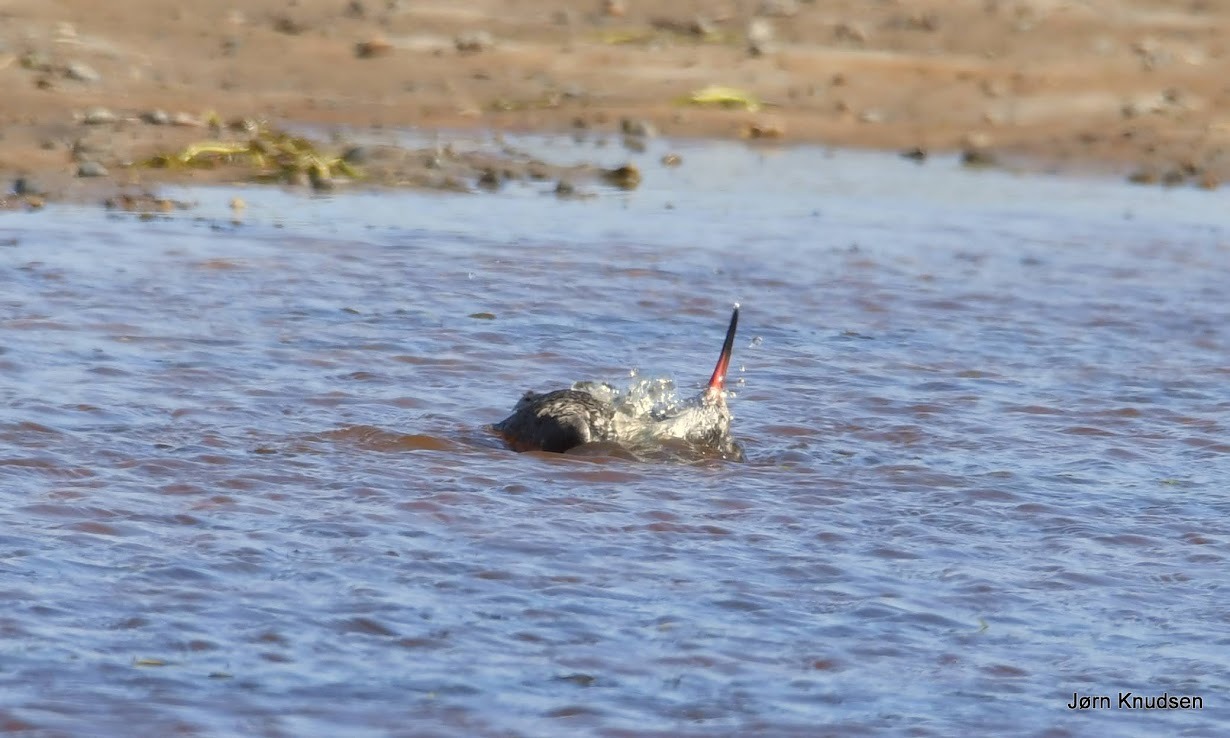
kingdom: Animalia
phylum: Chordata
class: Aves
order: Charadriiformes
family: Scolopacidae
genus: Tringa
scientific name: Tringa totanus
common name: Rødben
